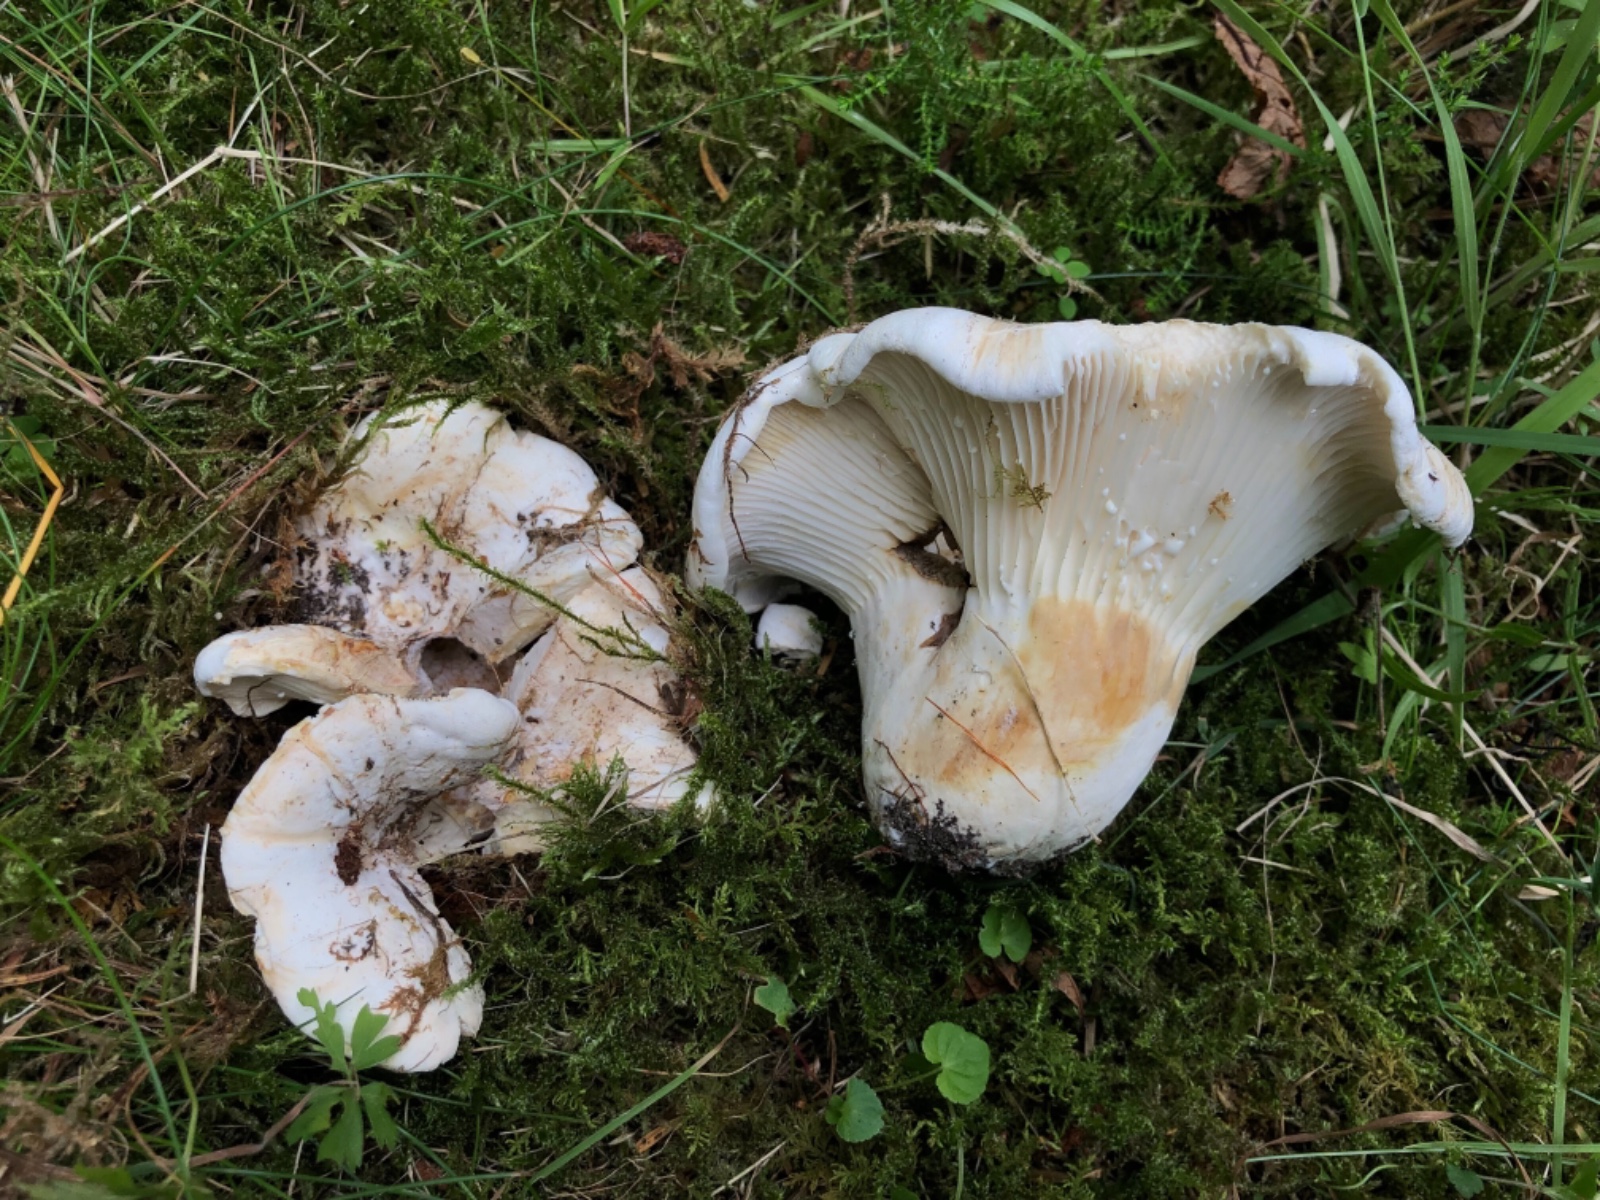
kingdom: Fungi
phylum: Basidiomycota
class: Agaricomycetes
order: Russulales
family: Russulaceae
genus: Lactifluus
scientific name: Lactifluus vellereus
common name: hvidfiltet mælkehat
